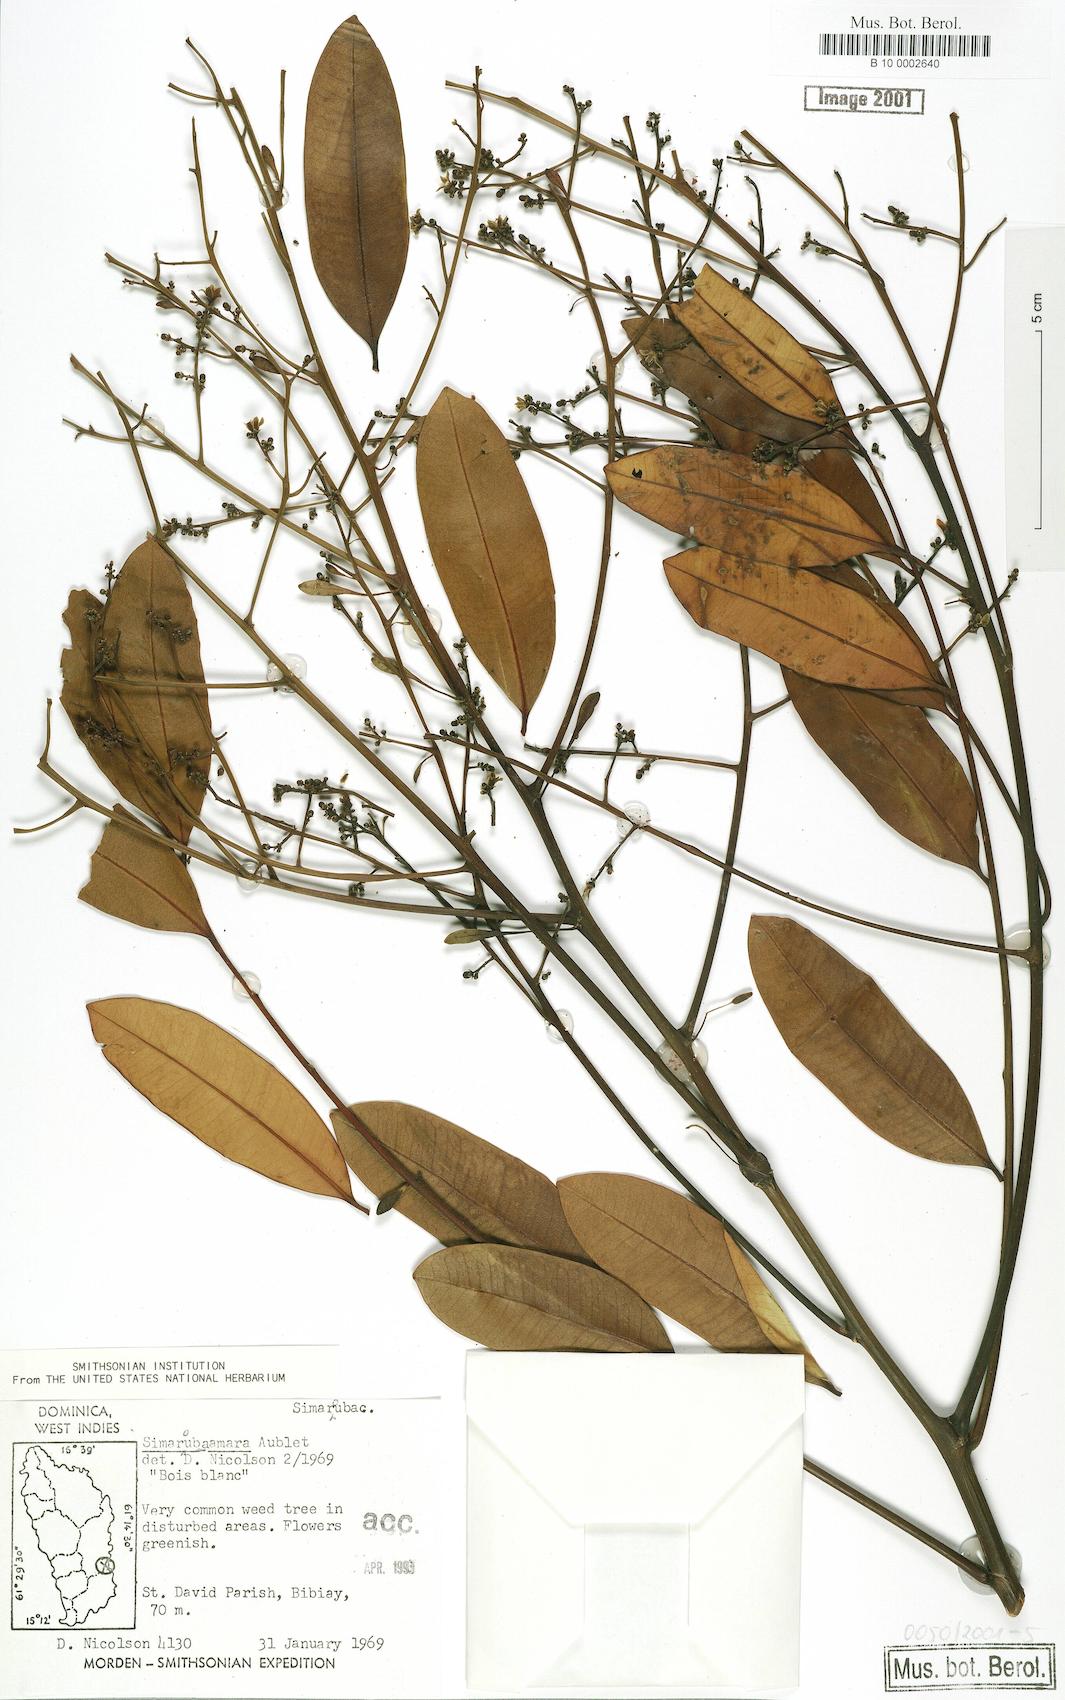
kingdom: Plantae
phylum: Tracheophyta
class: Magnoliopsida
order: Sapindales
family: Simaroubaceae
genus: Simarouba
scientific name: Simarouba amara
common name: Bitterwood
